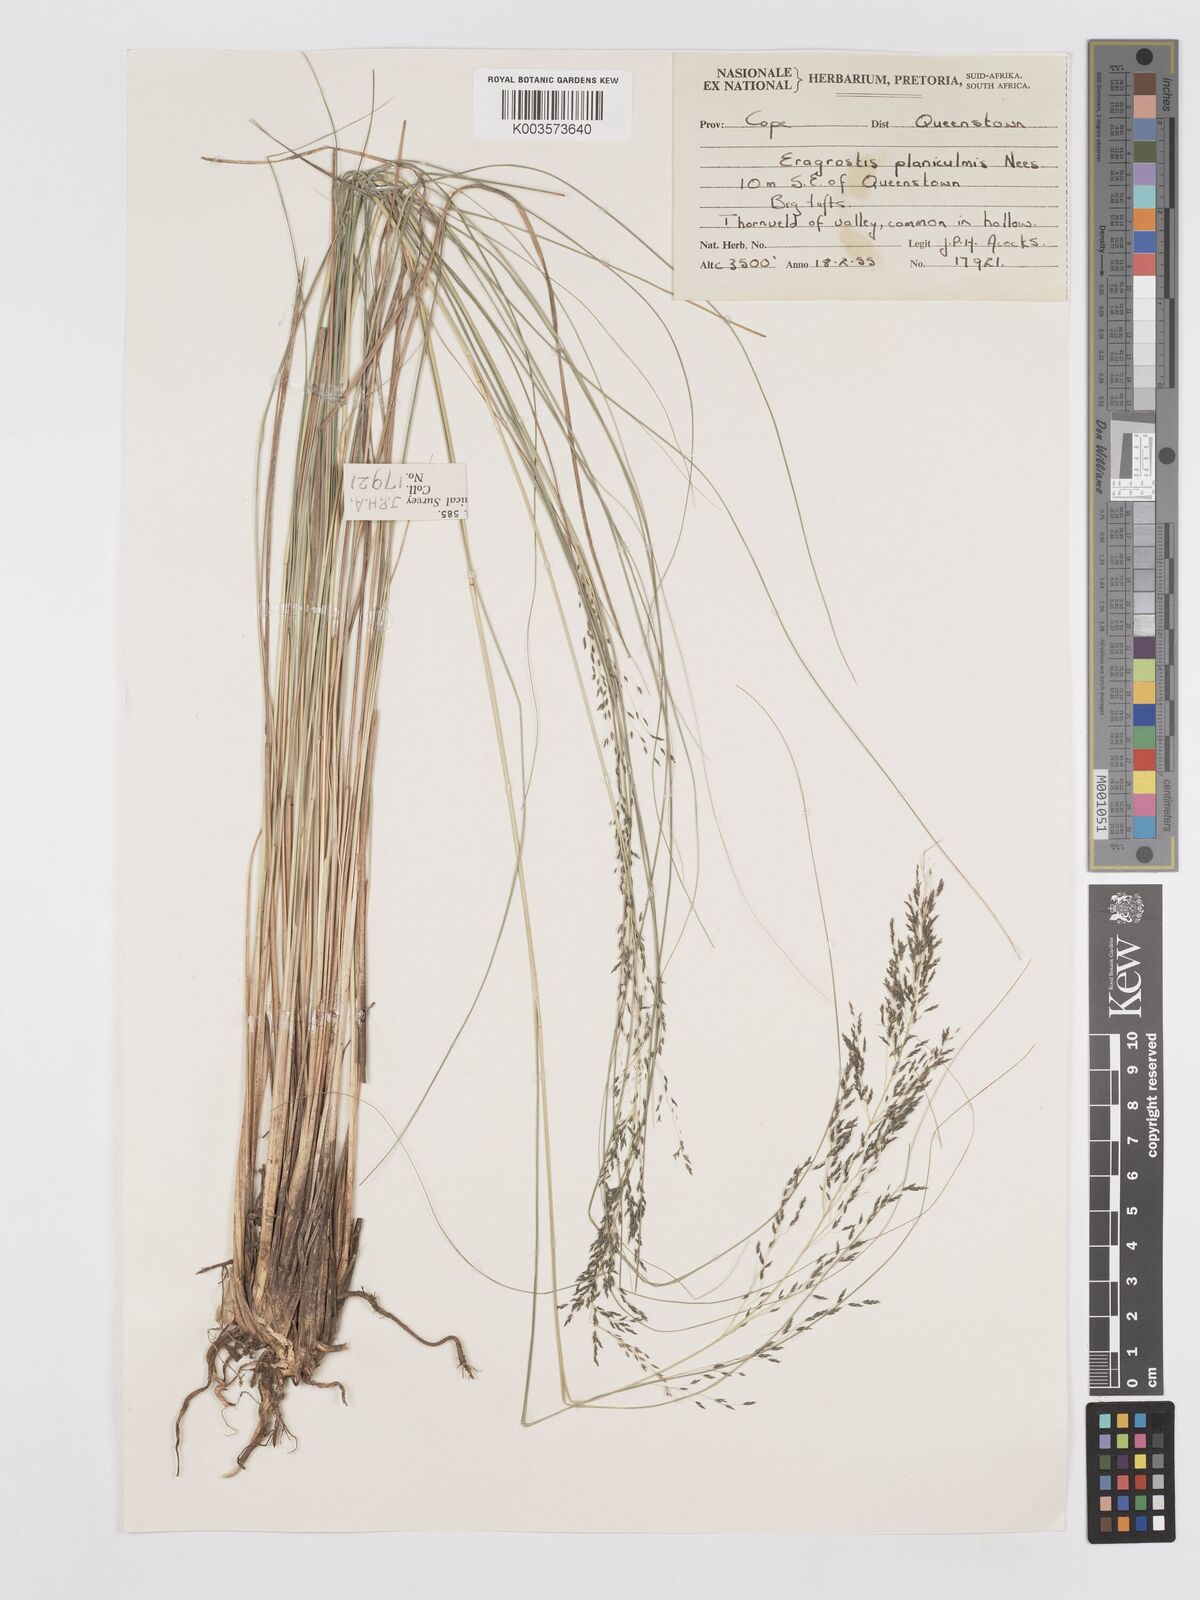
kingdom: Plantae
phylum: Tracheophyta
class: Liliopsida
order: Poales
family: Poaceae
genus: Eragrostis
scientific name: Eragrostis planiculmis
